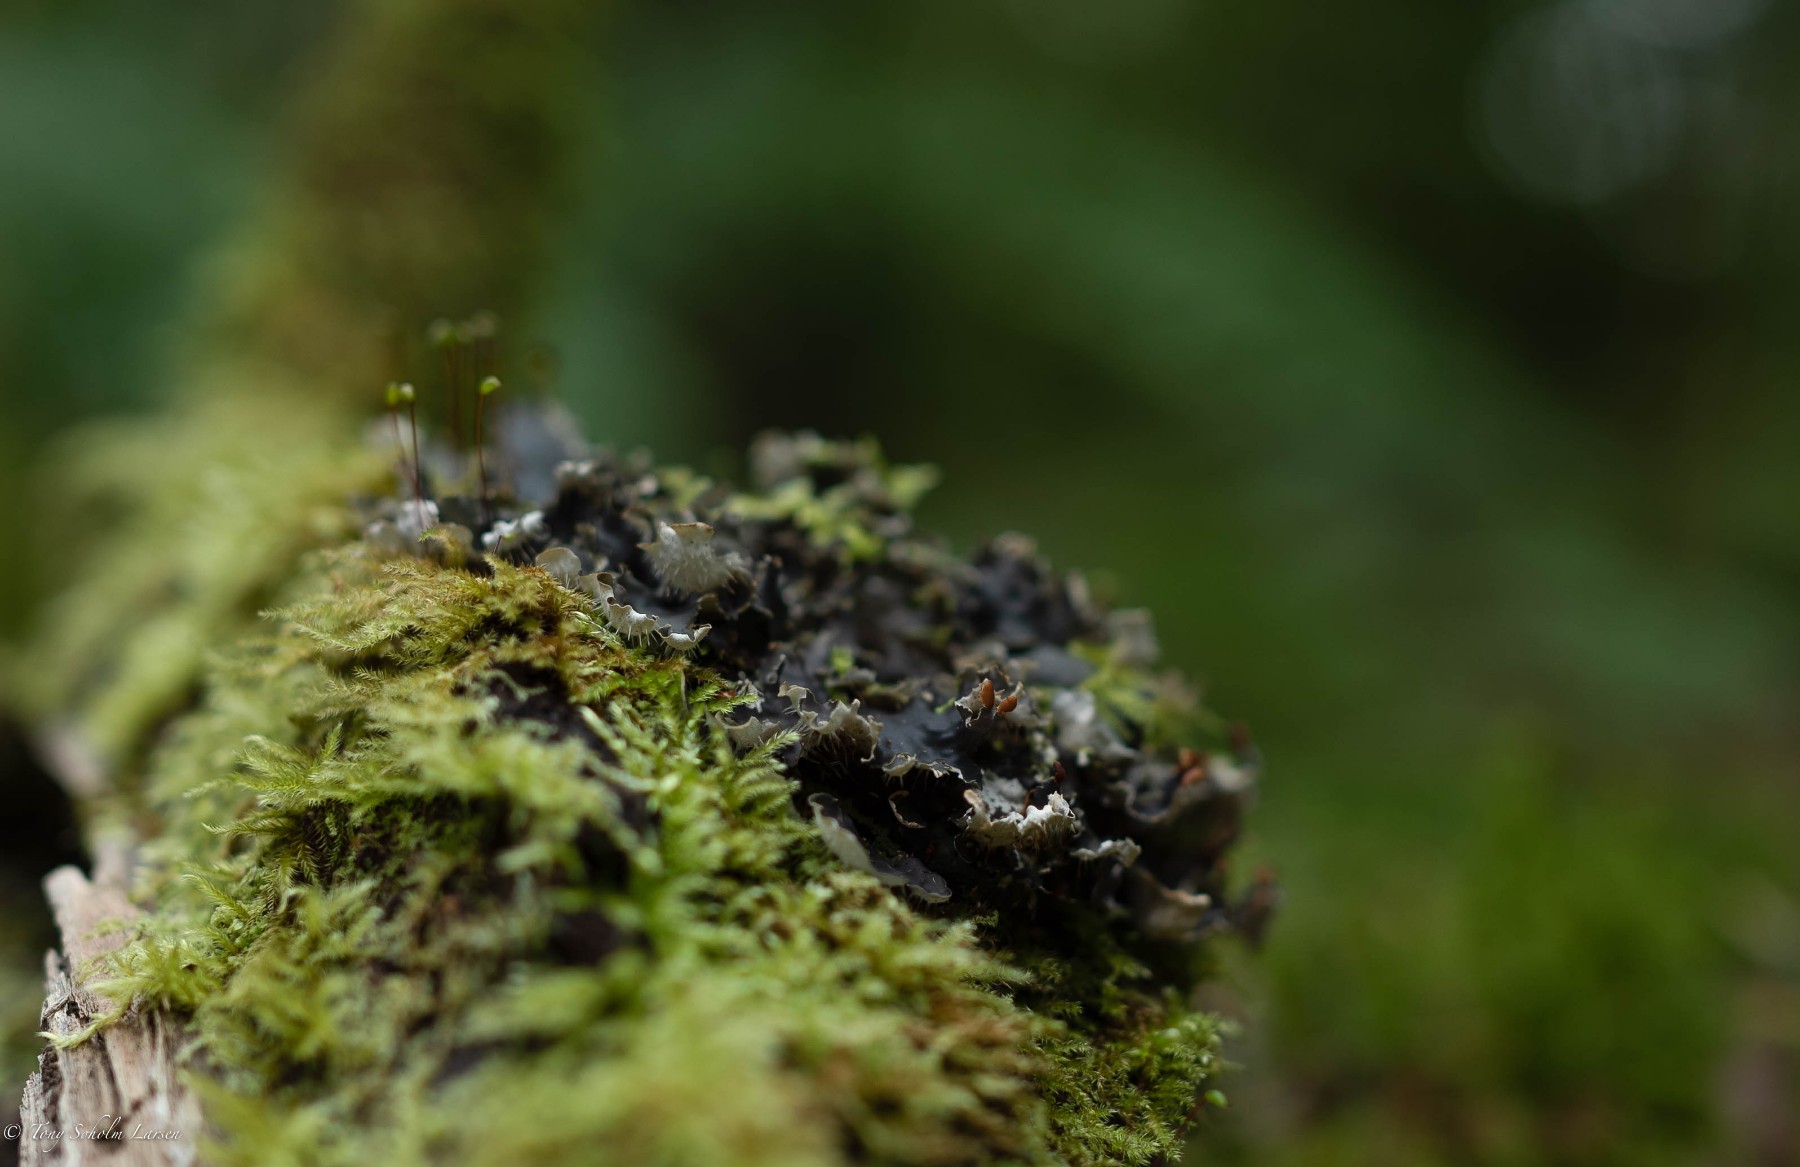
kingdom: Fungi
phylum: Ascomycota
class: Lecanoromycetes
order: Peltigerales
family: Peltigeraceae
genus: Peltigera
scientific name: Peltigera
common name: skjoldlav
